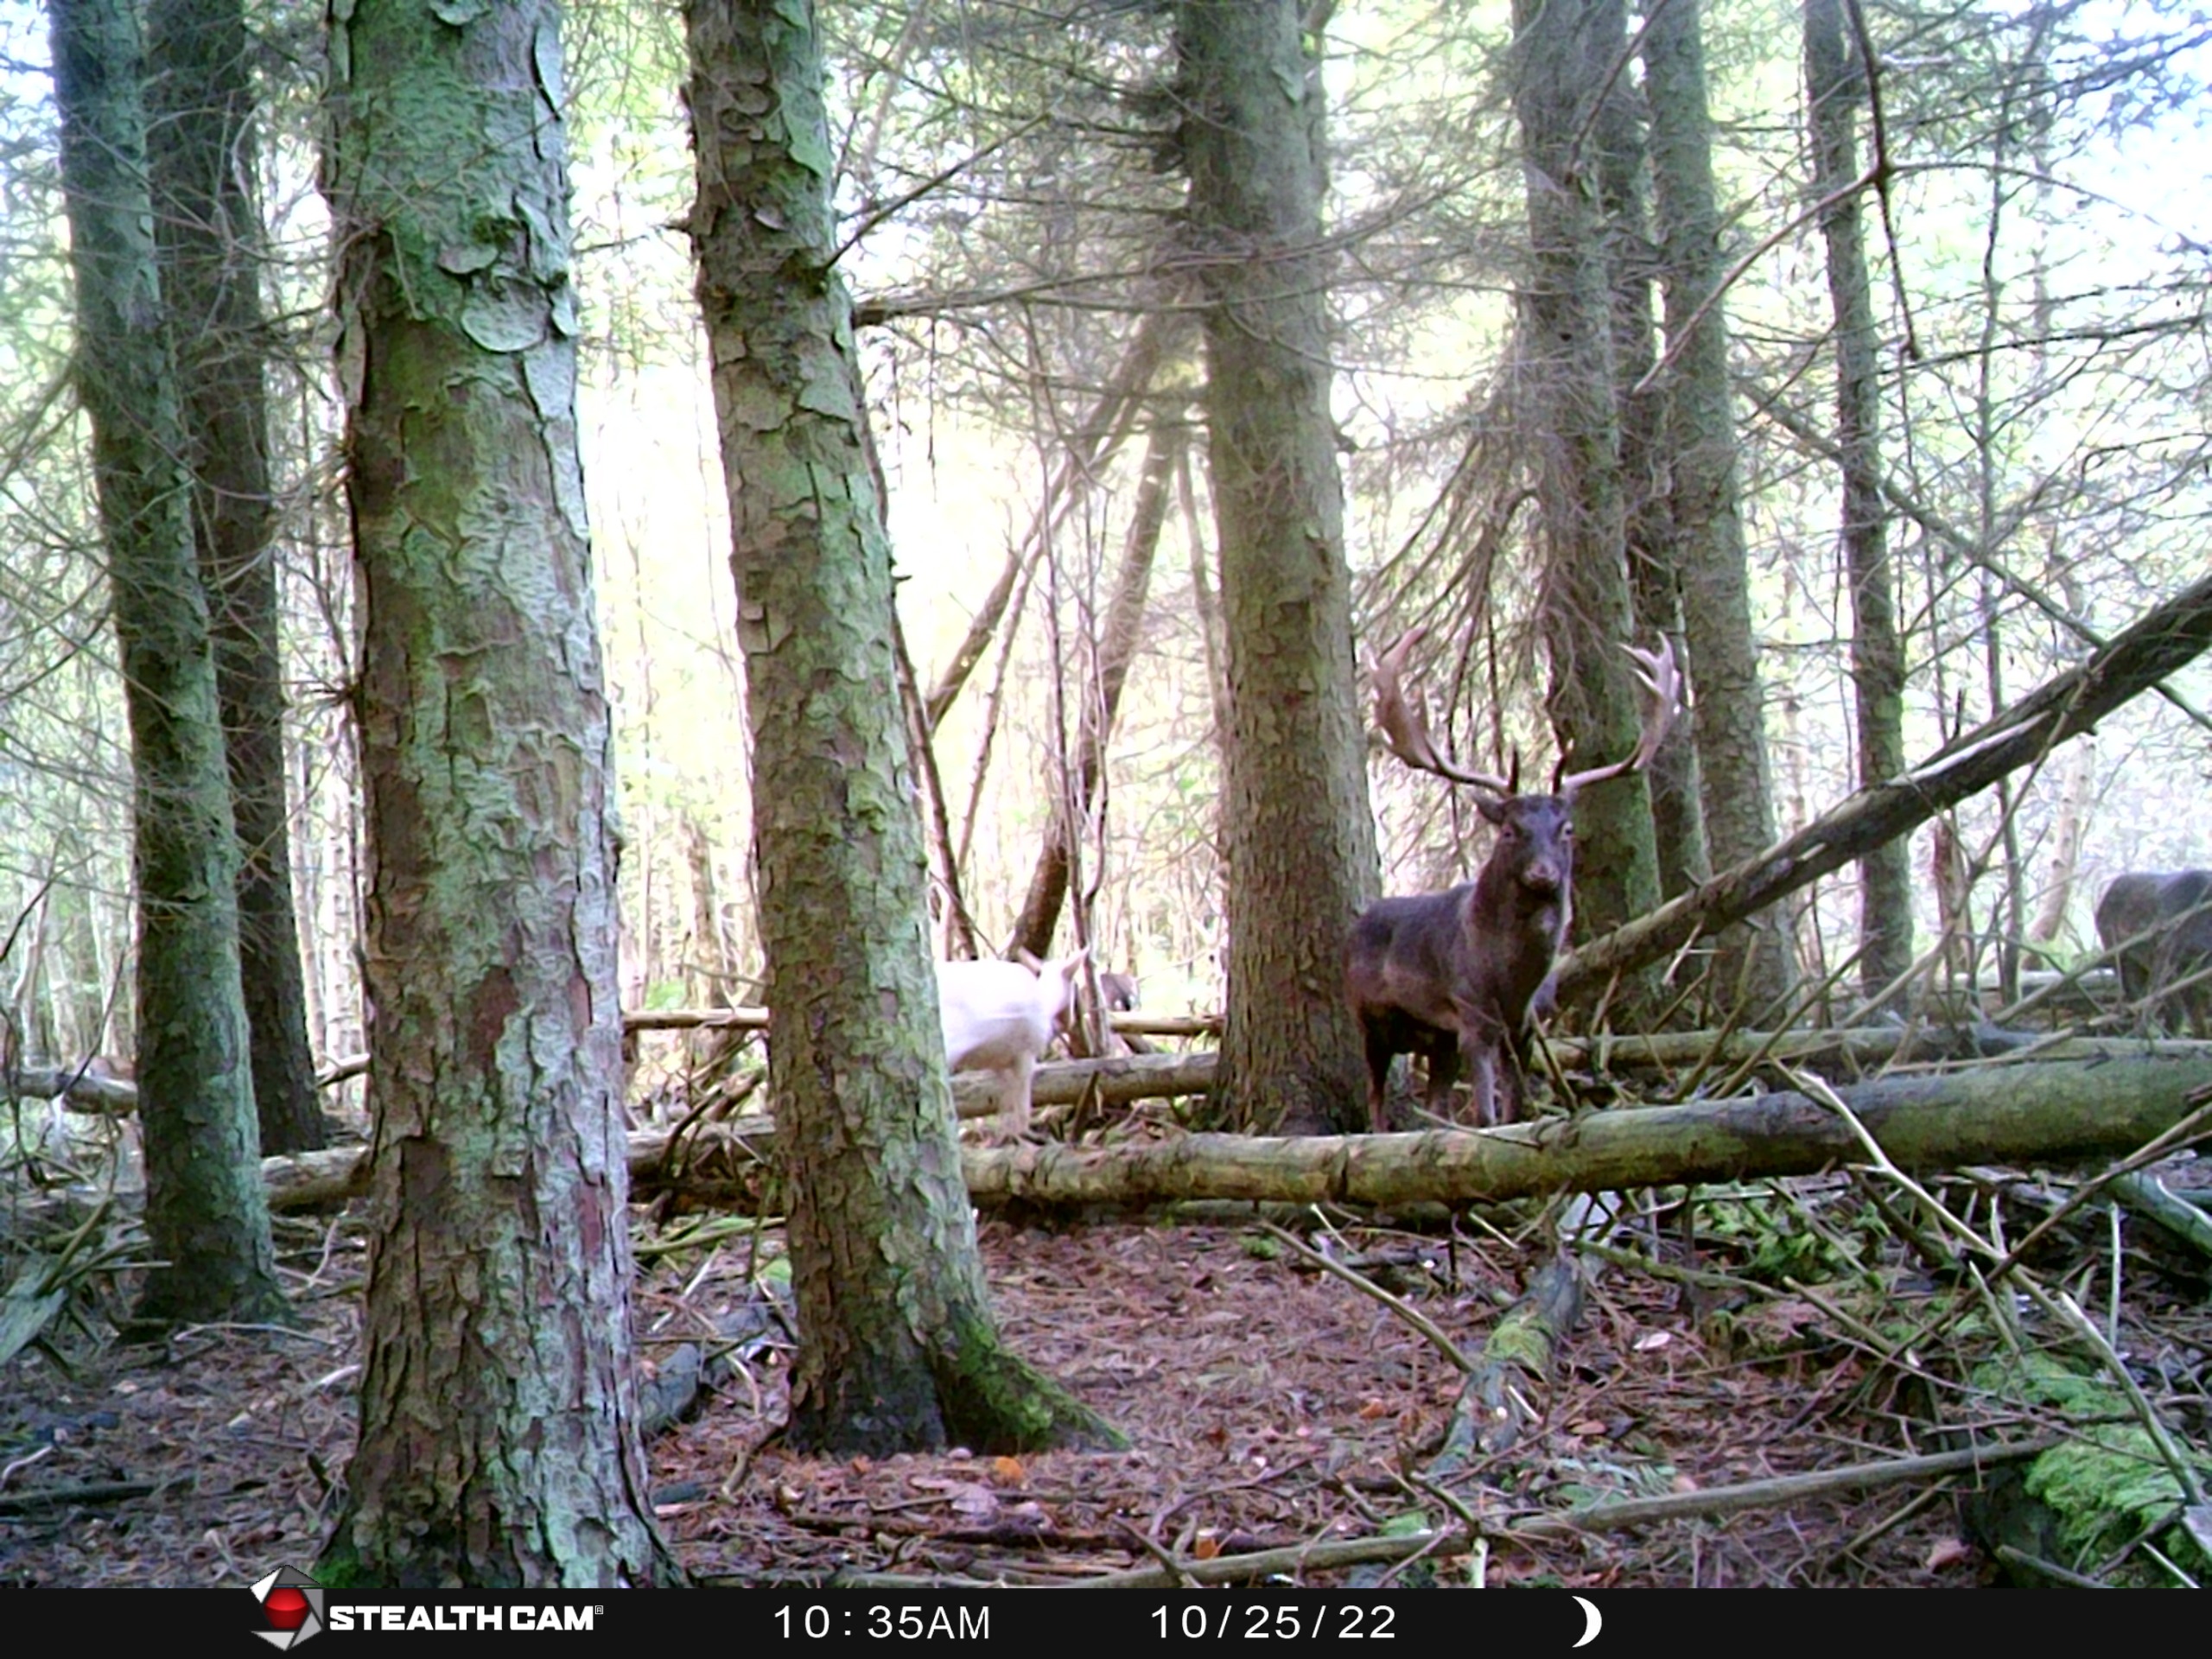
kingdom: Animalia
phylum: Chordata
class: Mammalia
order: Artiodactyla
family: Cervidae
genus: Dama
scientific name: Dama dama
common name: Dådyr
